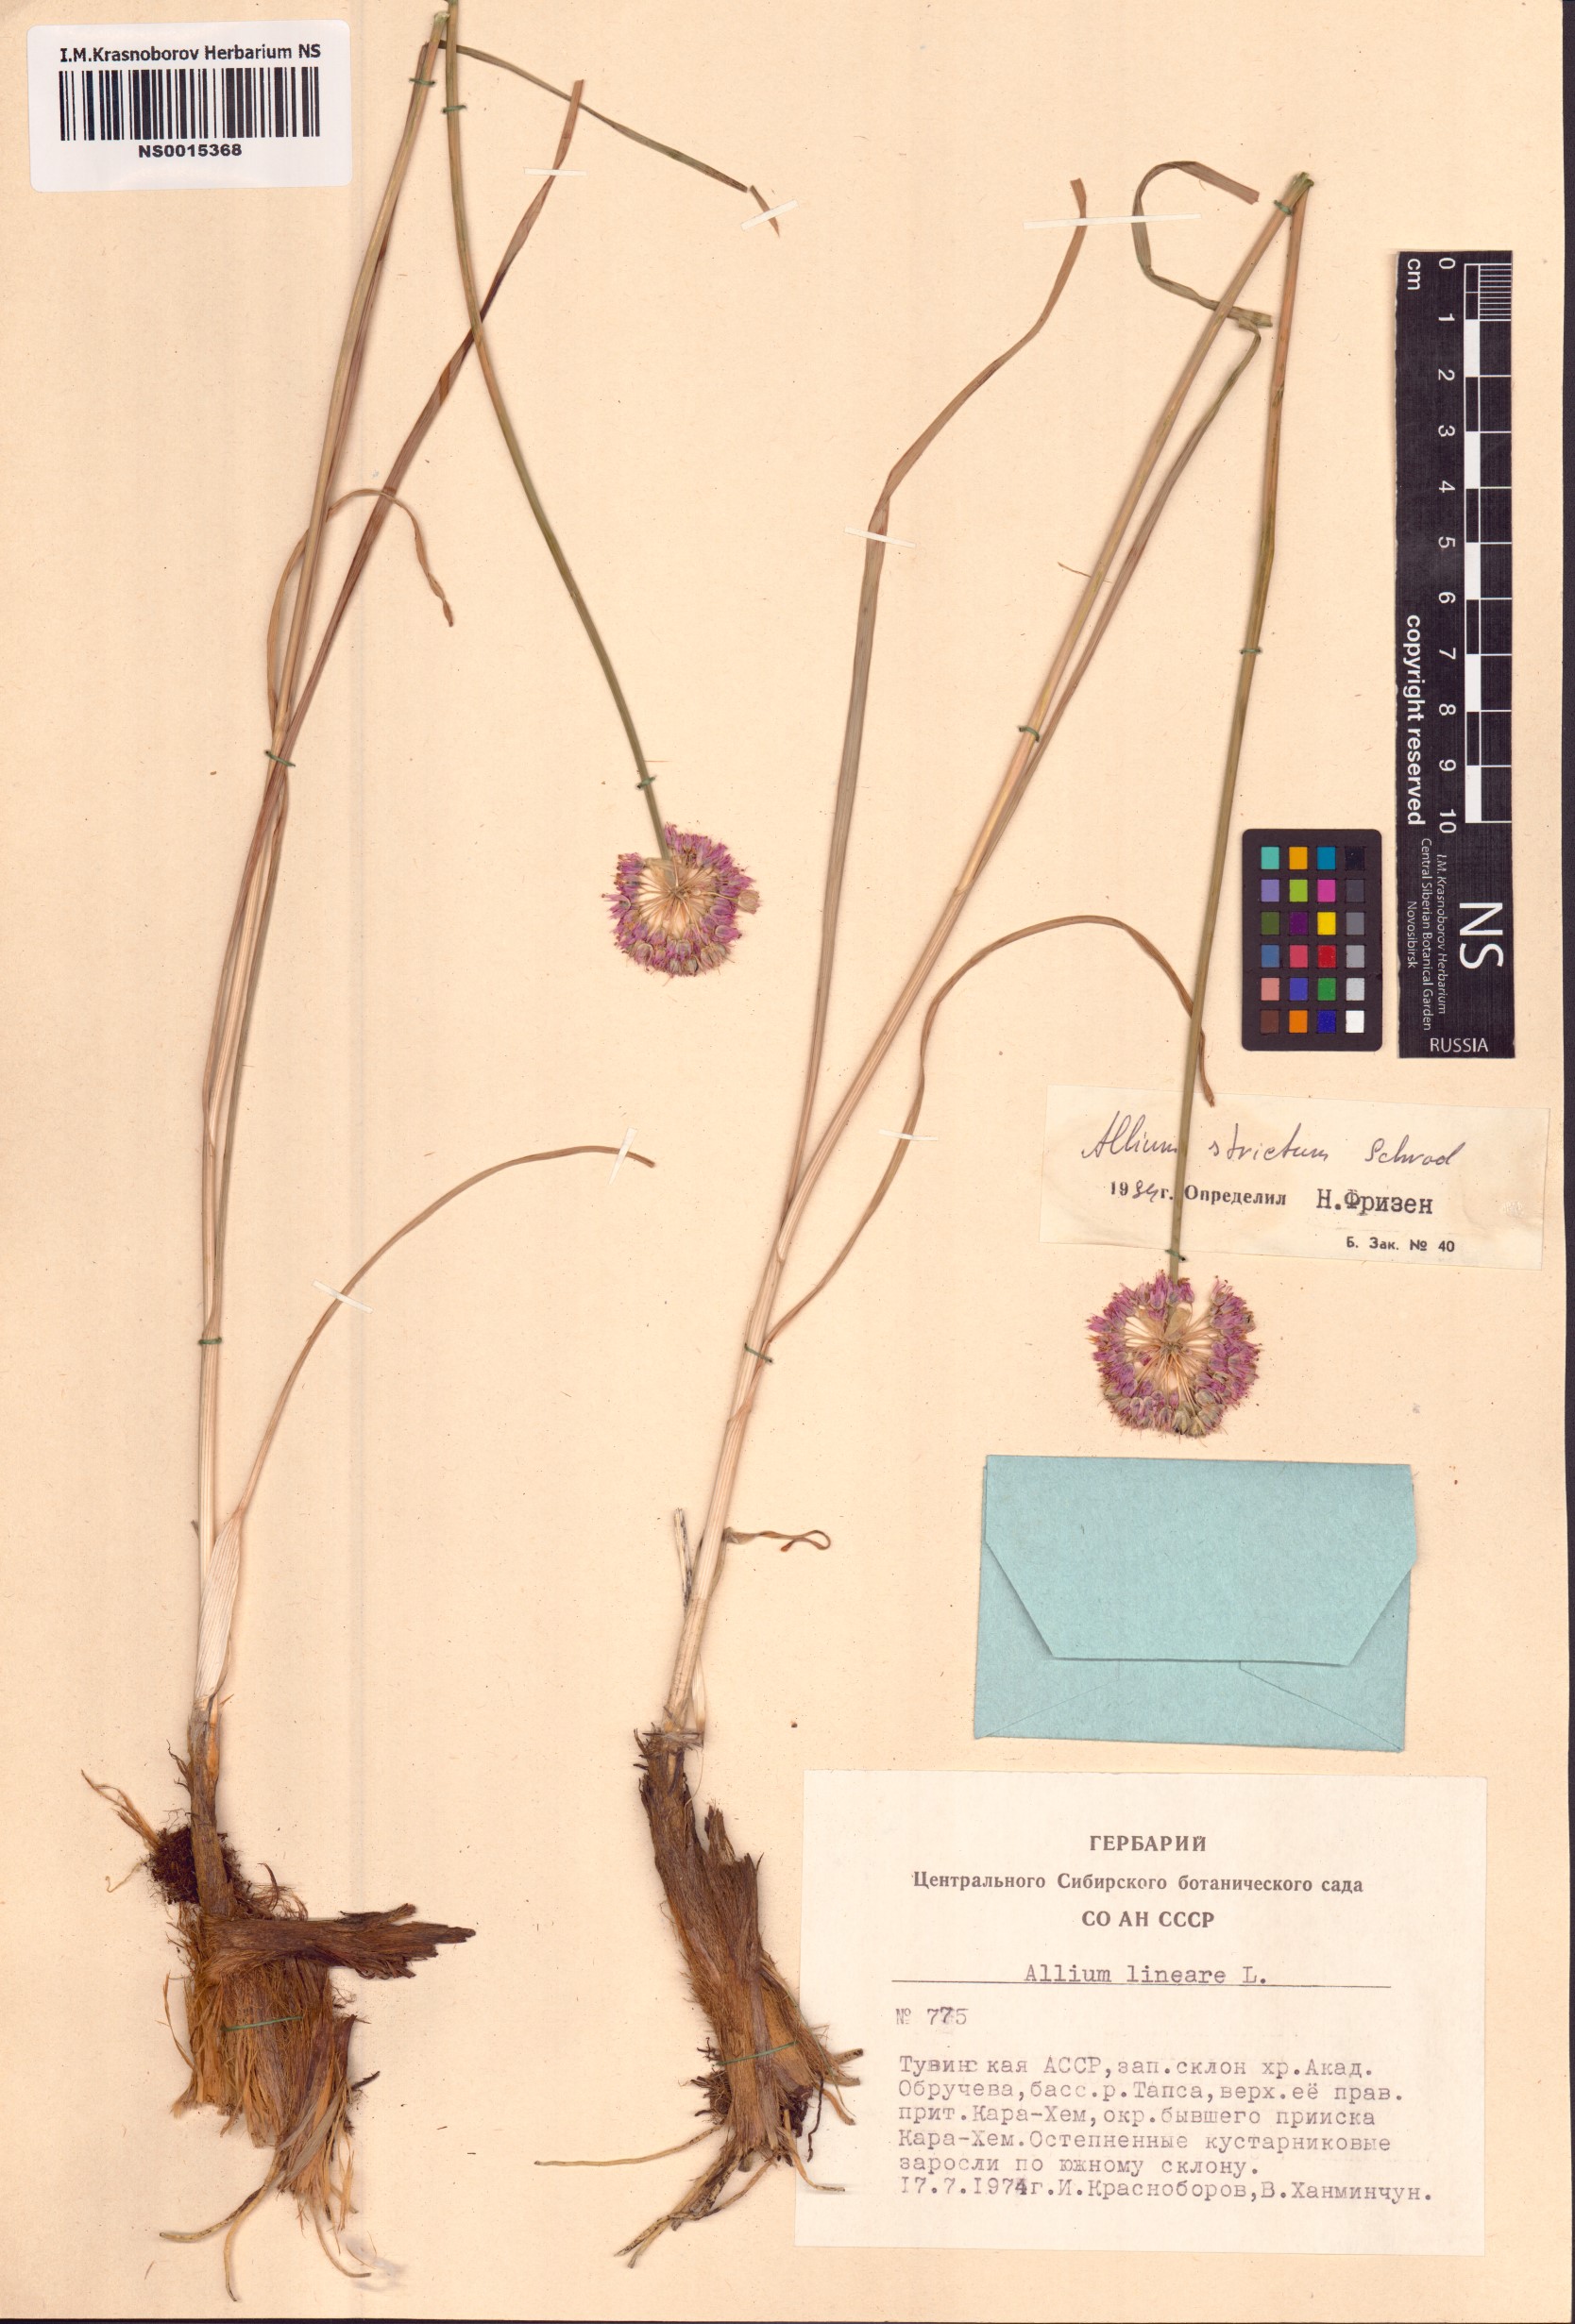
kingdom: Plantae
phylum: Tracheophyta
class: Liliopsida
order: Asparagales
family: Amaryllidaceae
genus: Allium
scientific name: Allium strictum
